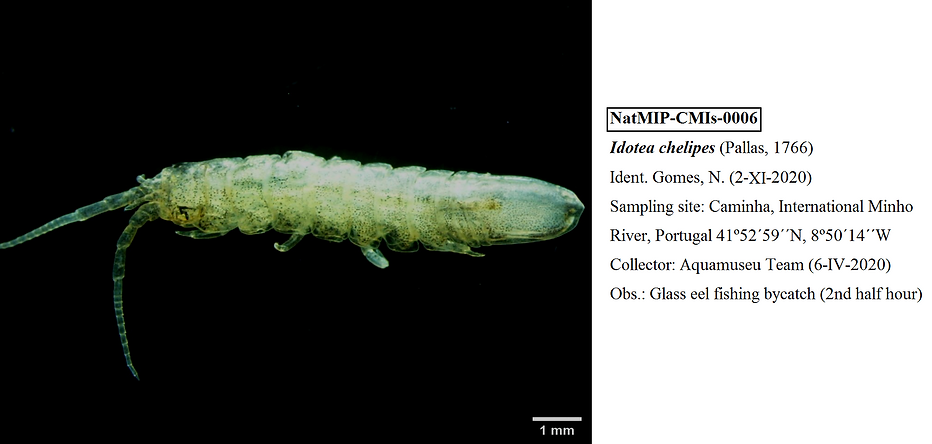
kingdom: Animalia
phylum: Arthropoda
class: Malacostraca
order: Isopoda
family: Idoteidae
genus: Idotea
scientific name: Idotea chelipes
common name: Clawfooted marine isopod
